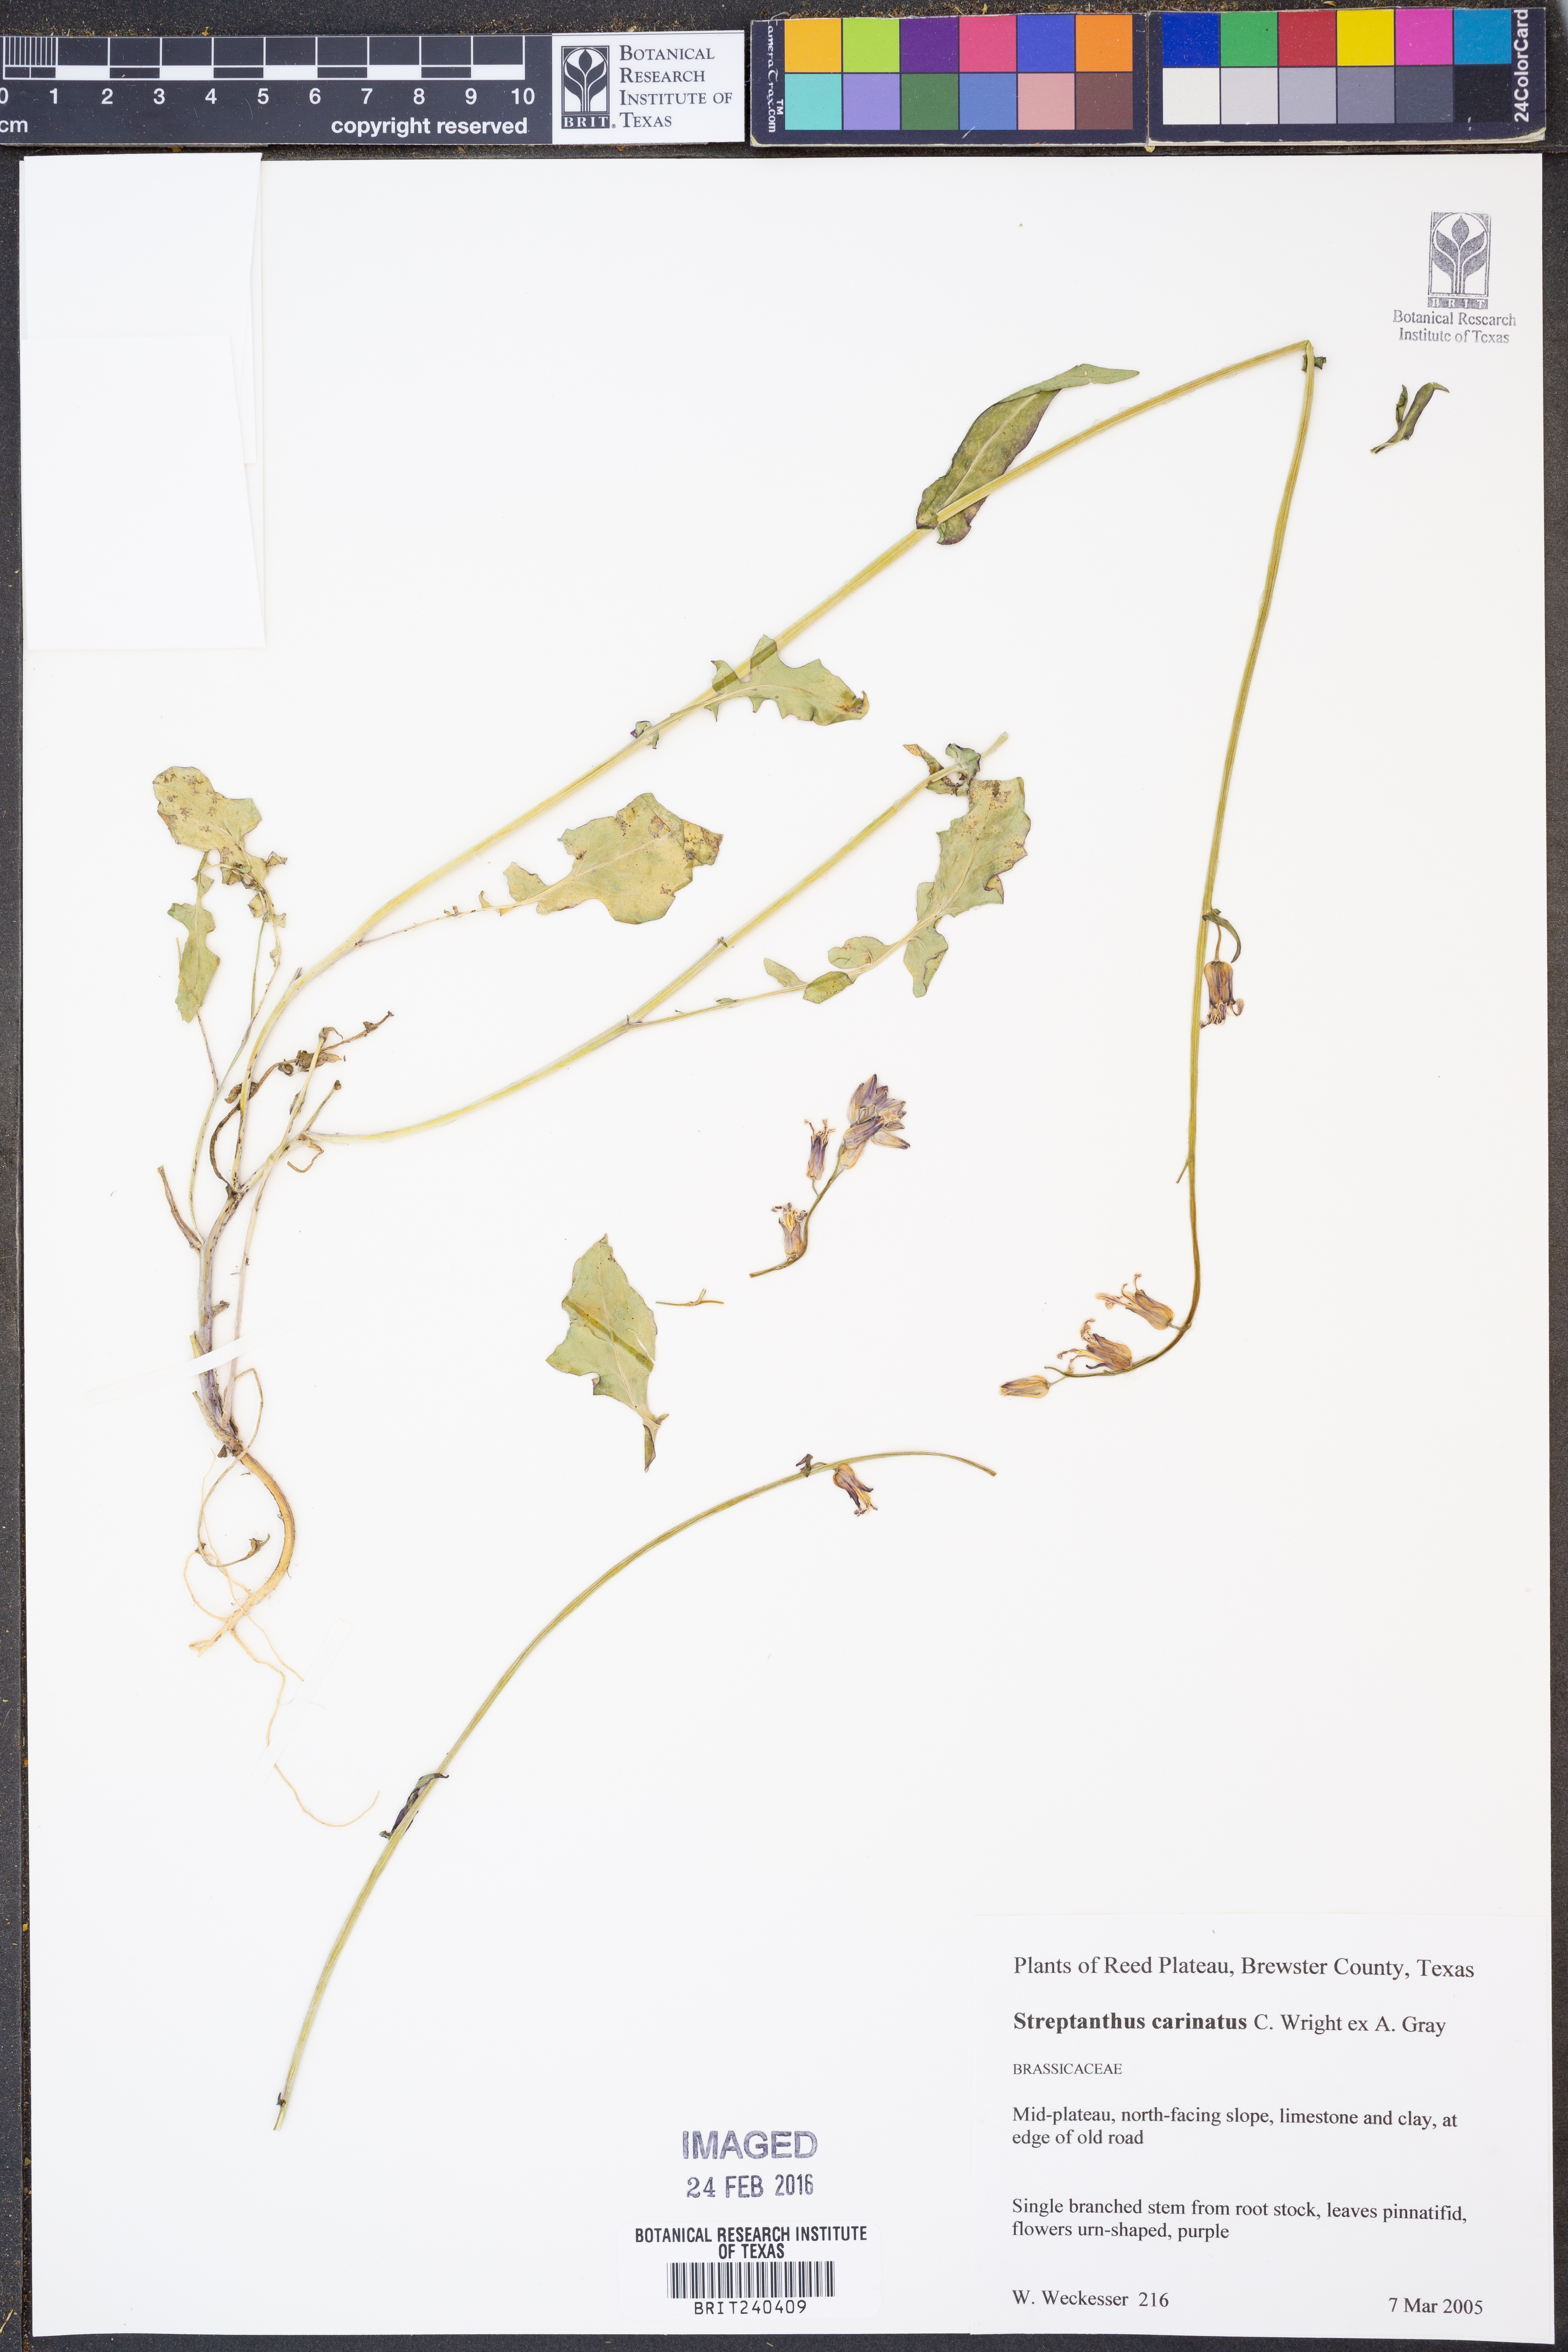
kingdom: Plantae
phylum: Tracheophyta
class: Magnoliopsida
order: Brassicales
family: Brassicaceae
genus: Streptanthus
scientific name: Streptanthus carinatus
